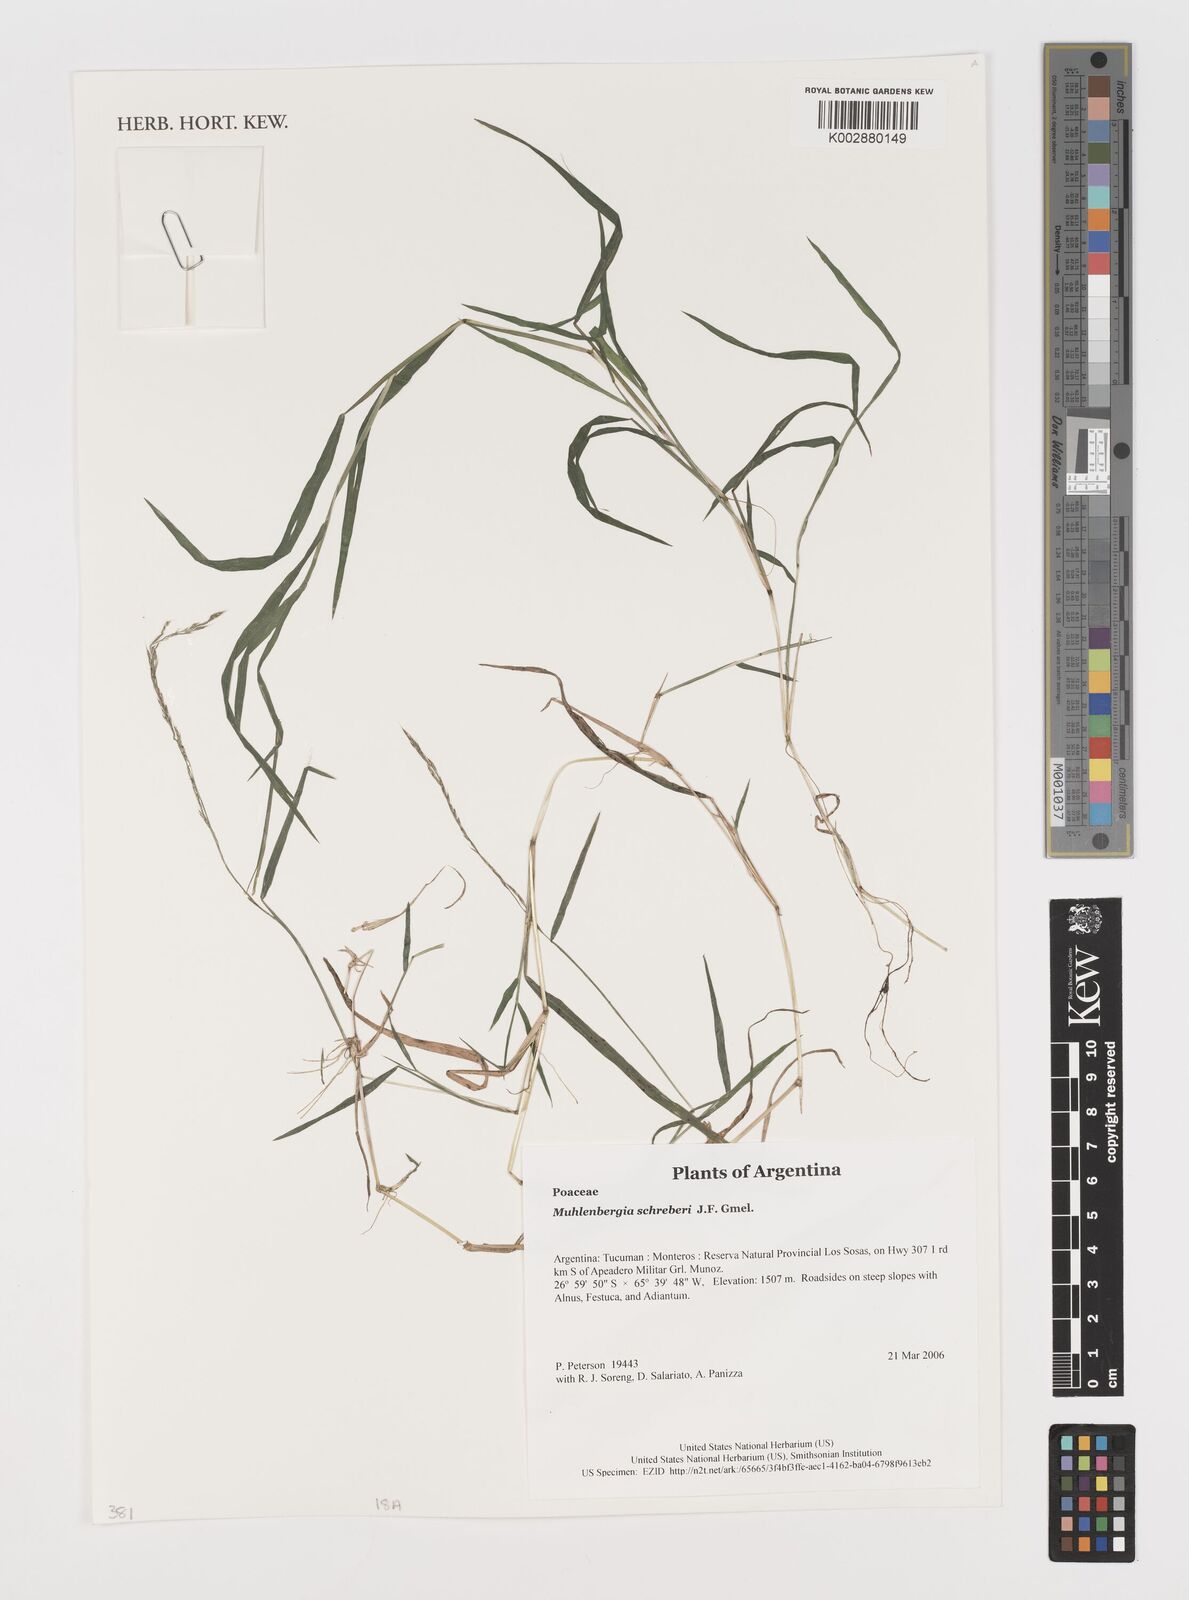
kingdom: Plantae
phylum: Tracheophyta
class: Liliopsida
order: Poales
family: Poaceae
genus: Muhlenbergia
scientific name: Muhlenbergia schreberi
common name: Nimblewill
